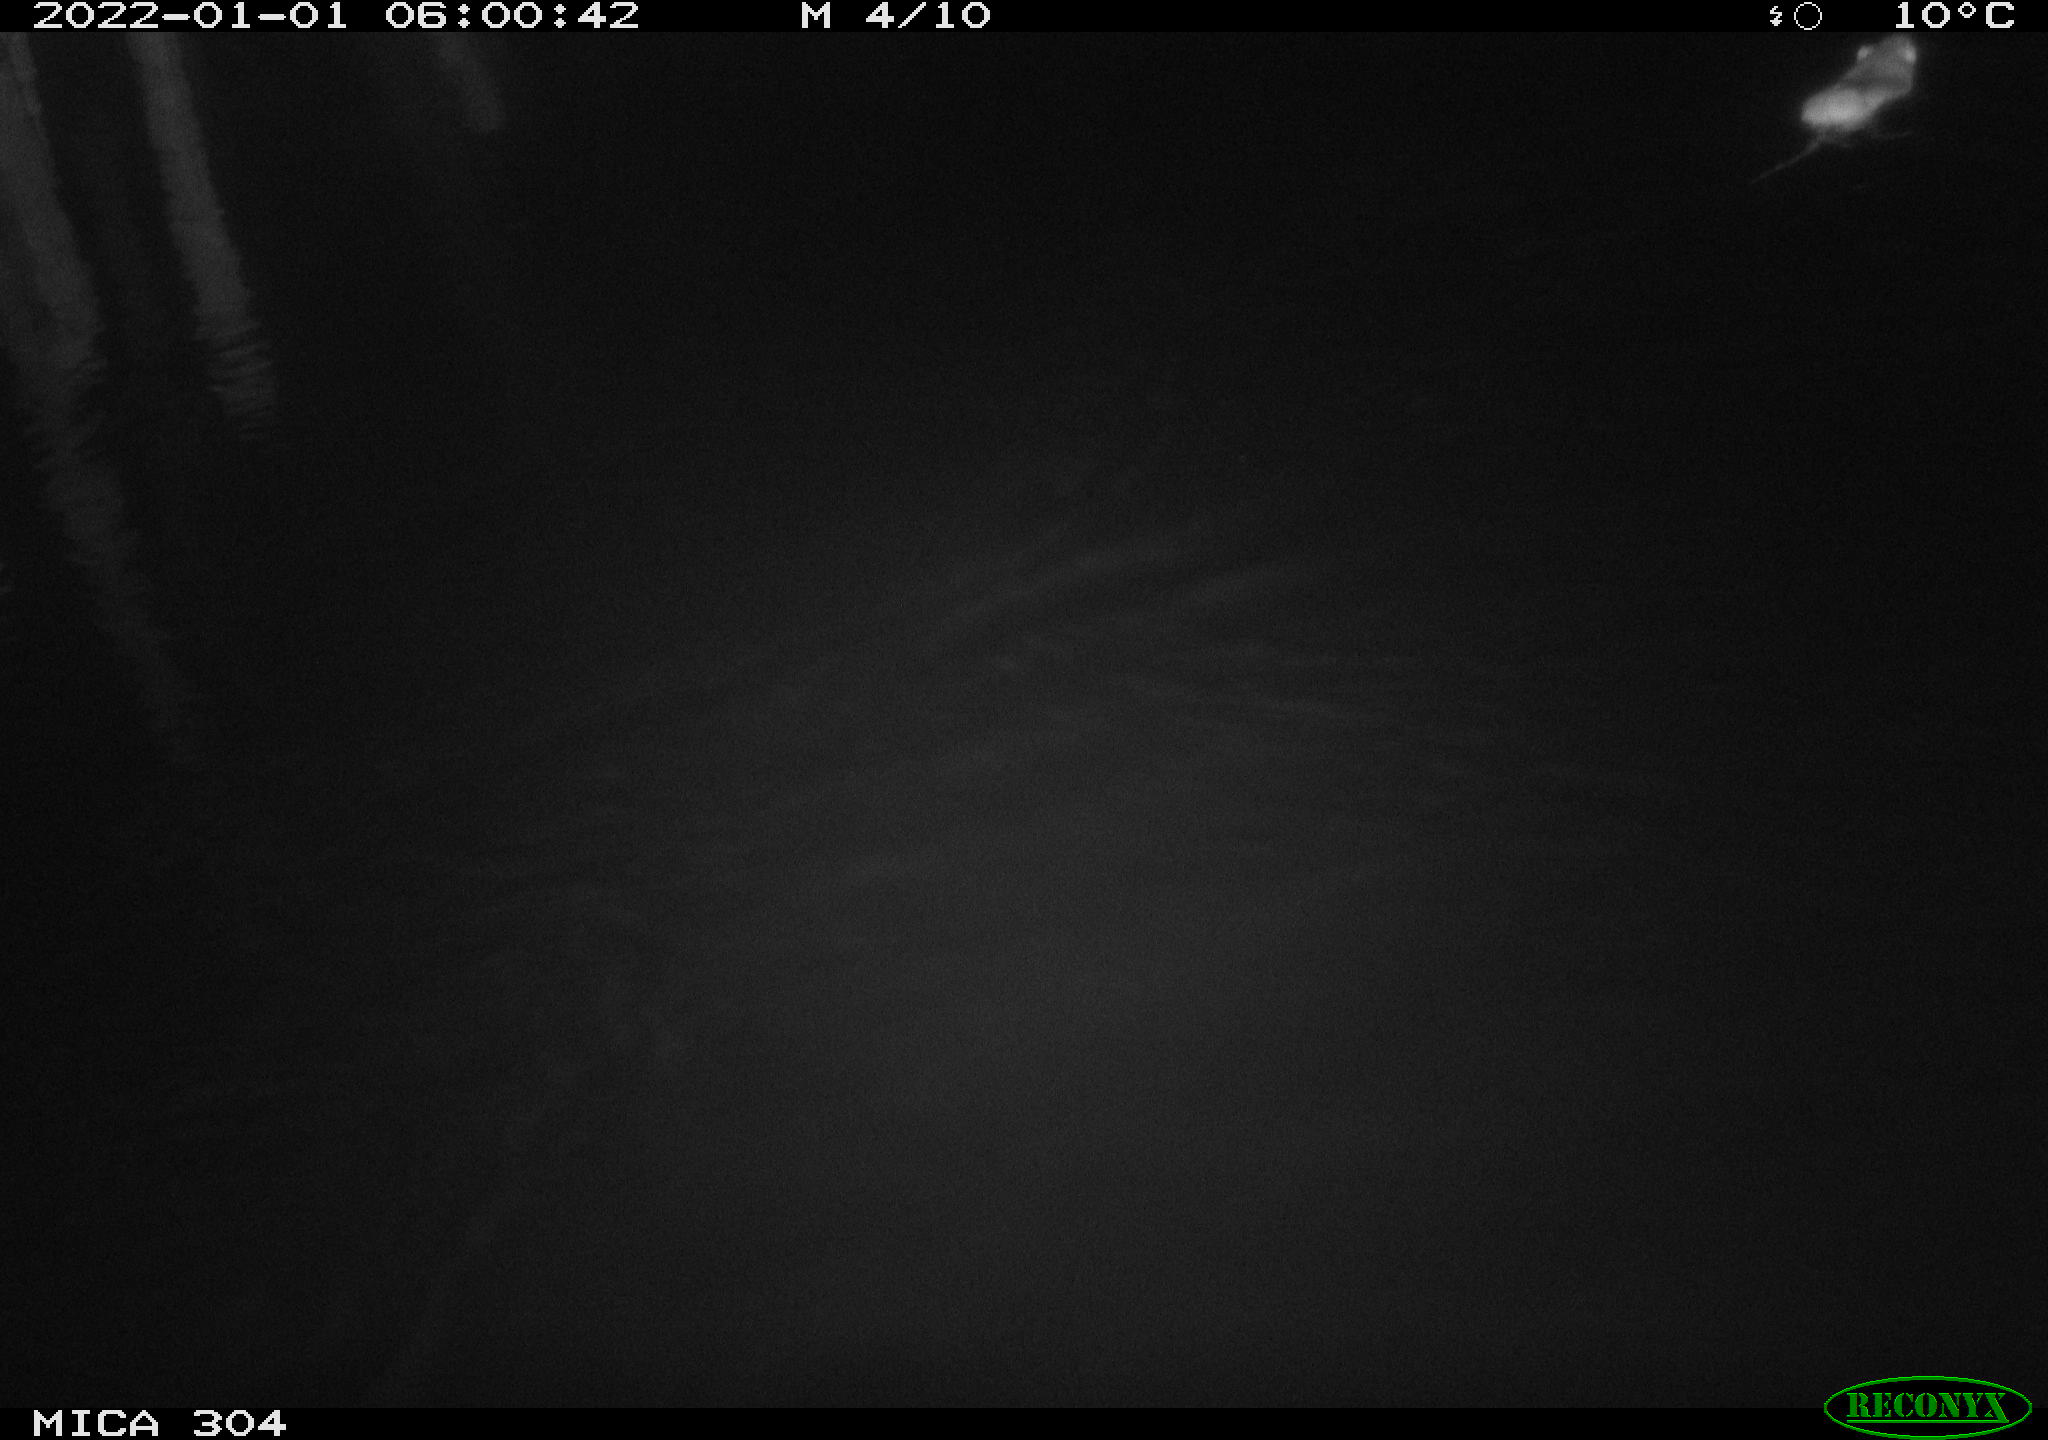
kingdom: Animalia
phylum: Chordata
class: Mammalia
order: Rodentia
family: Muridae
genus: Rattus
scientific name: Rattus norvegicus
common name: Brown rat
